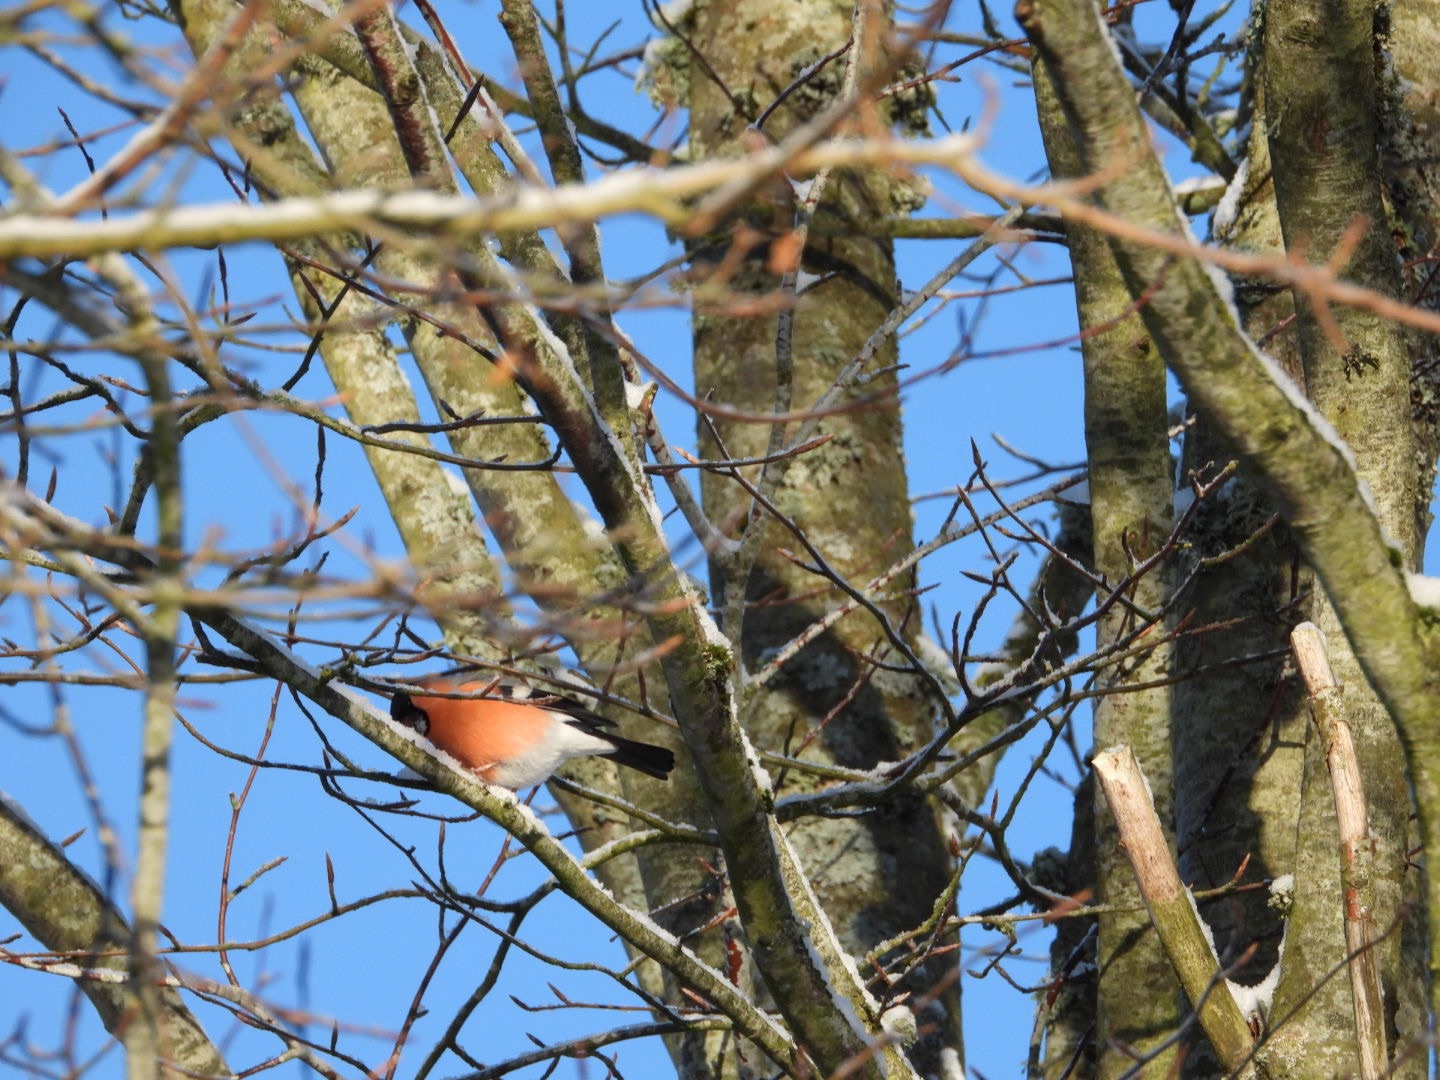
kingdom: Animalia
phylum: Chordata
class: Aves
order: Passeriformes
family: Fringillidae
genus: Pyrrhula
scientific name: Pyrrhula pyrrhula
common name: Dompap
